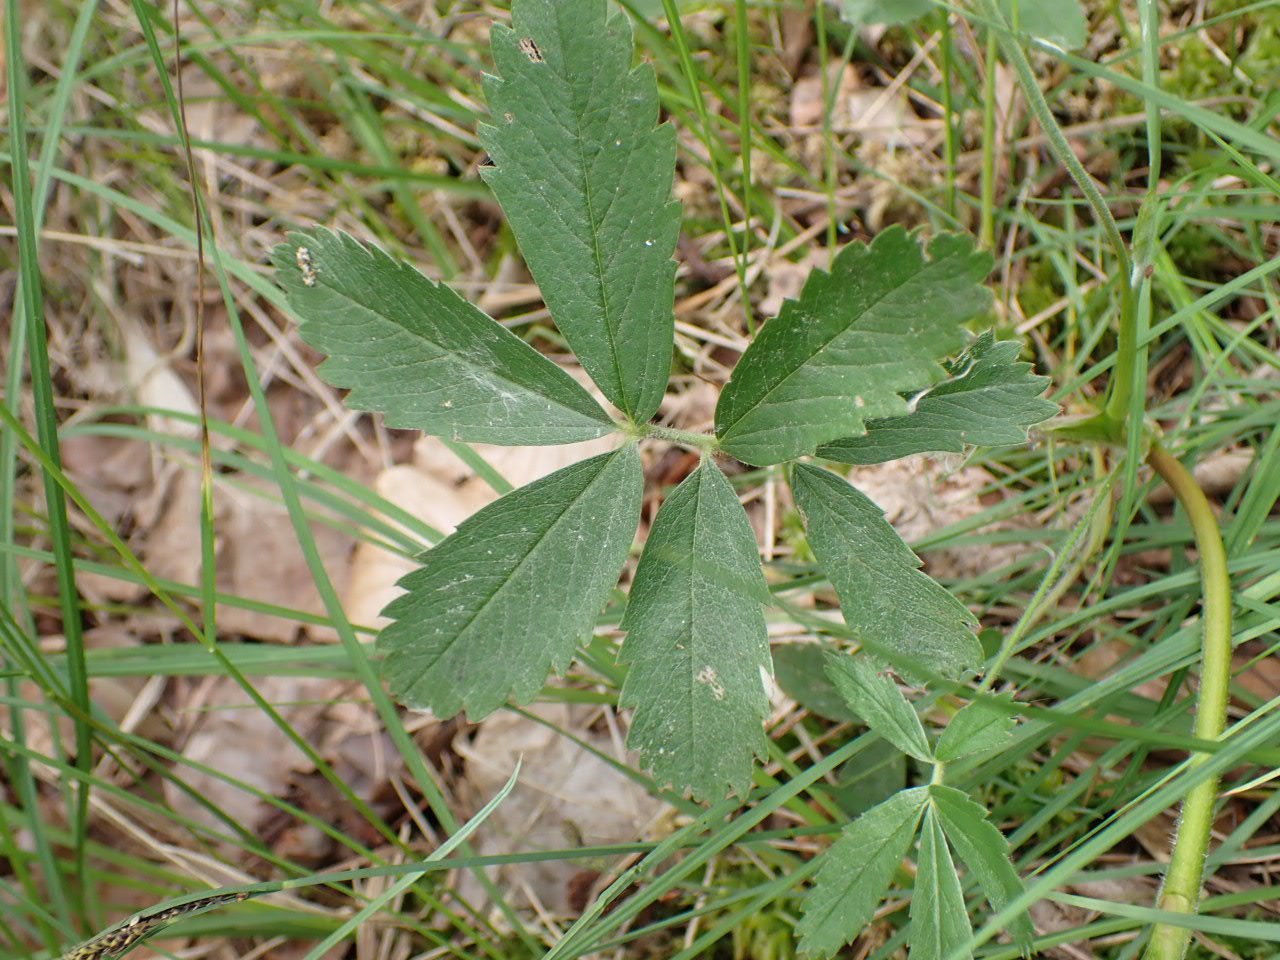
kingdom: Plantae
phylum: Tracheophyta
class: Magnoliopsida
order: Rosales
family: Rosaceae
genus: Comarum
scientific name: Comarum palustre
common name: Kragefod
